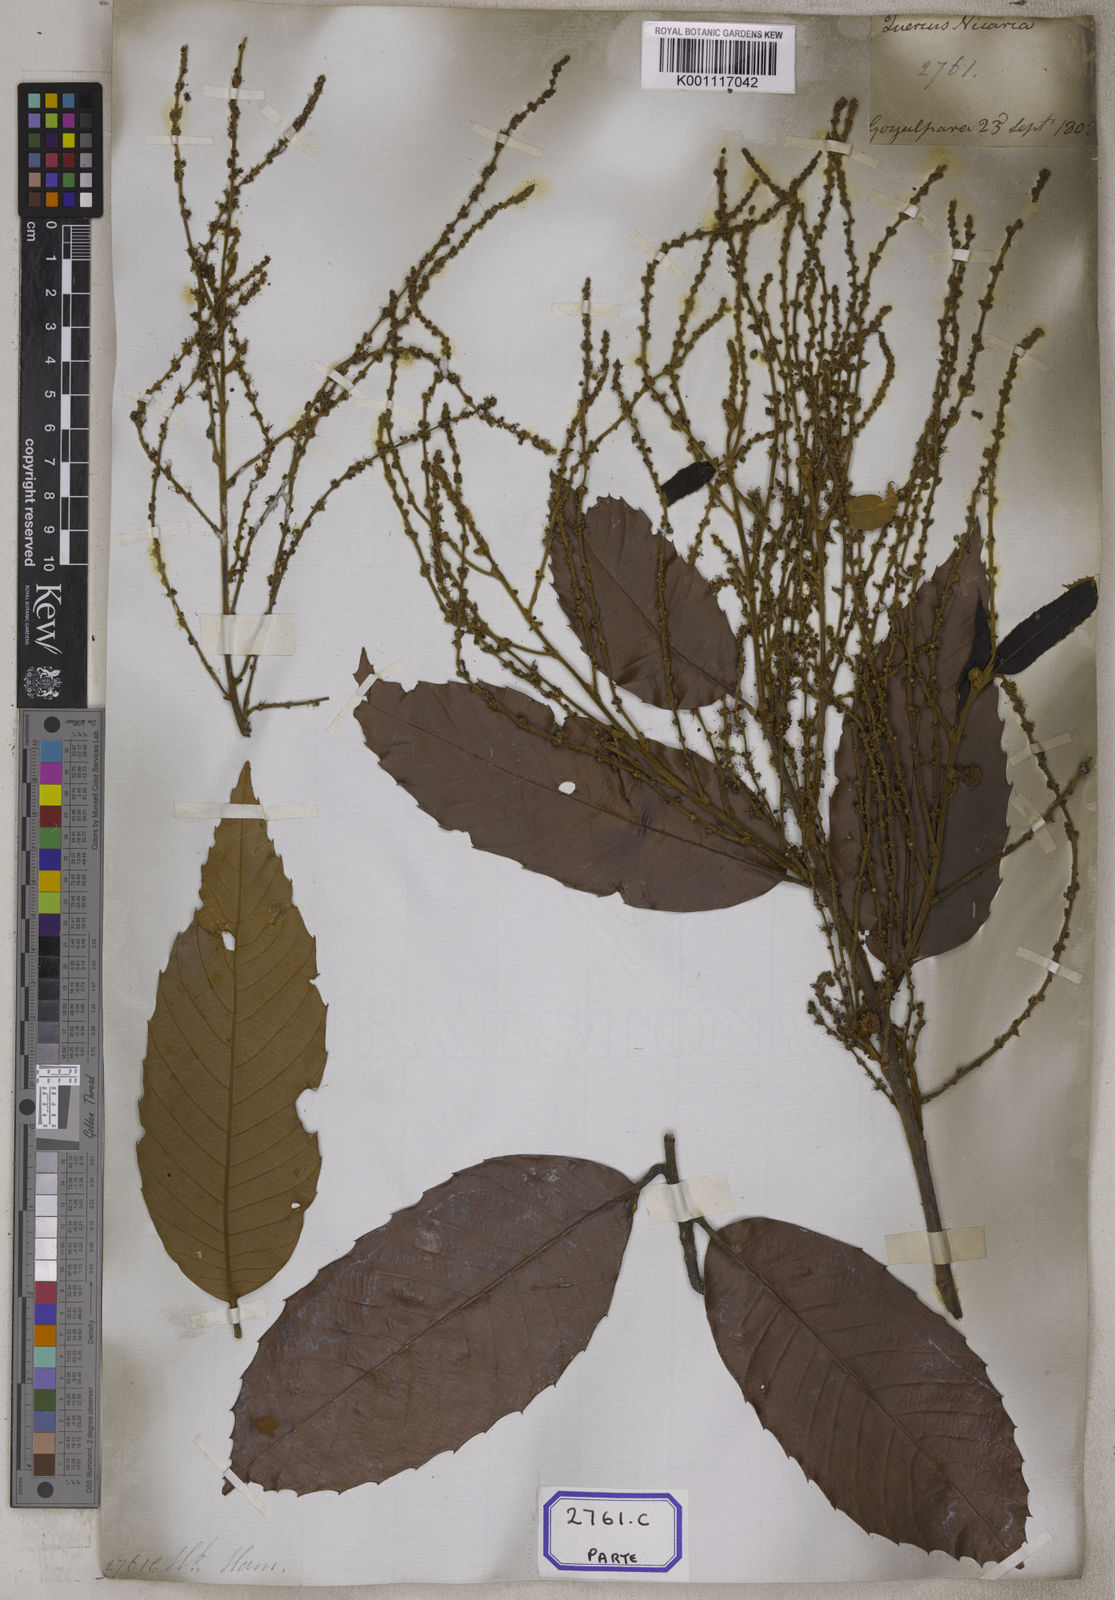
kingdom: Plantae
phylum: Tracheophyta
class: Magnoliopsida
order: Fagales
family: Fagaceae
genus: Castanopsis
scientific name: Castanopsis indica
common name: Indian-chestnut
